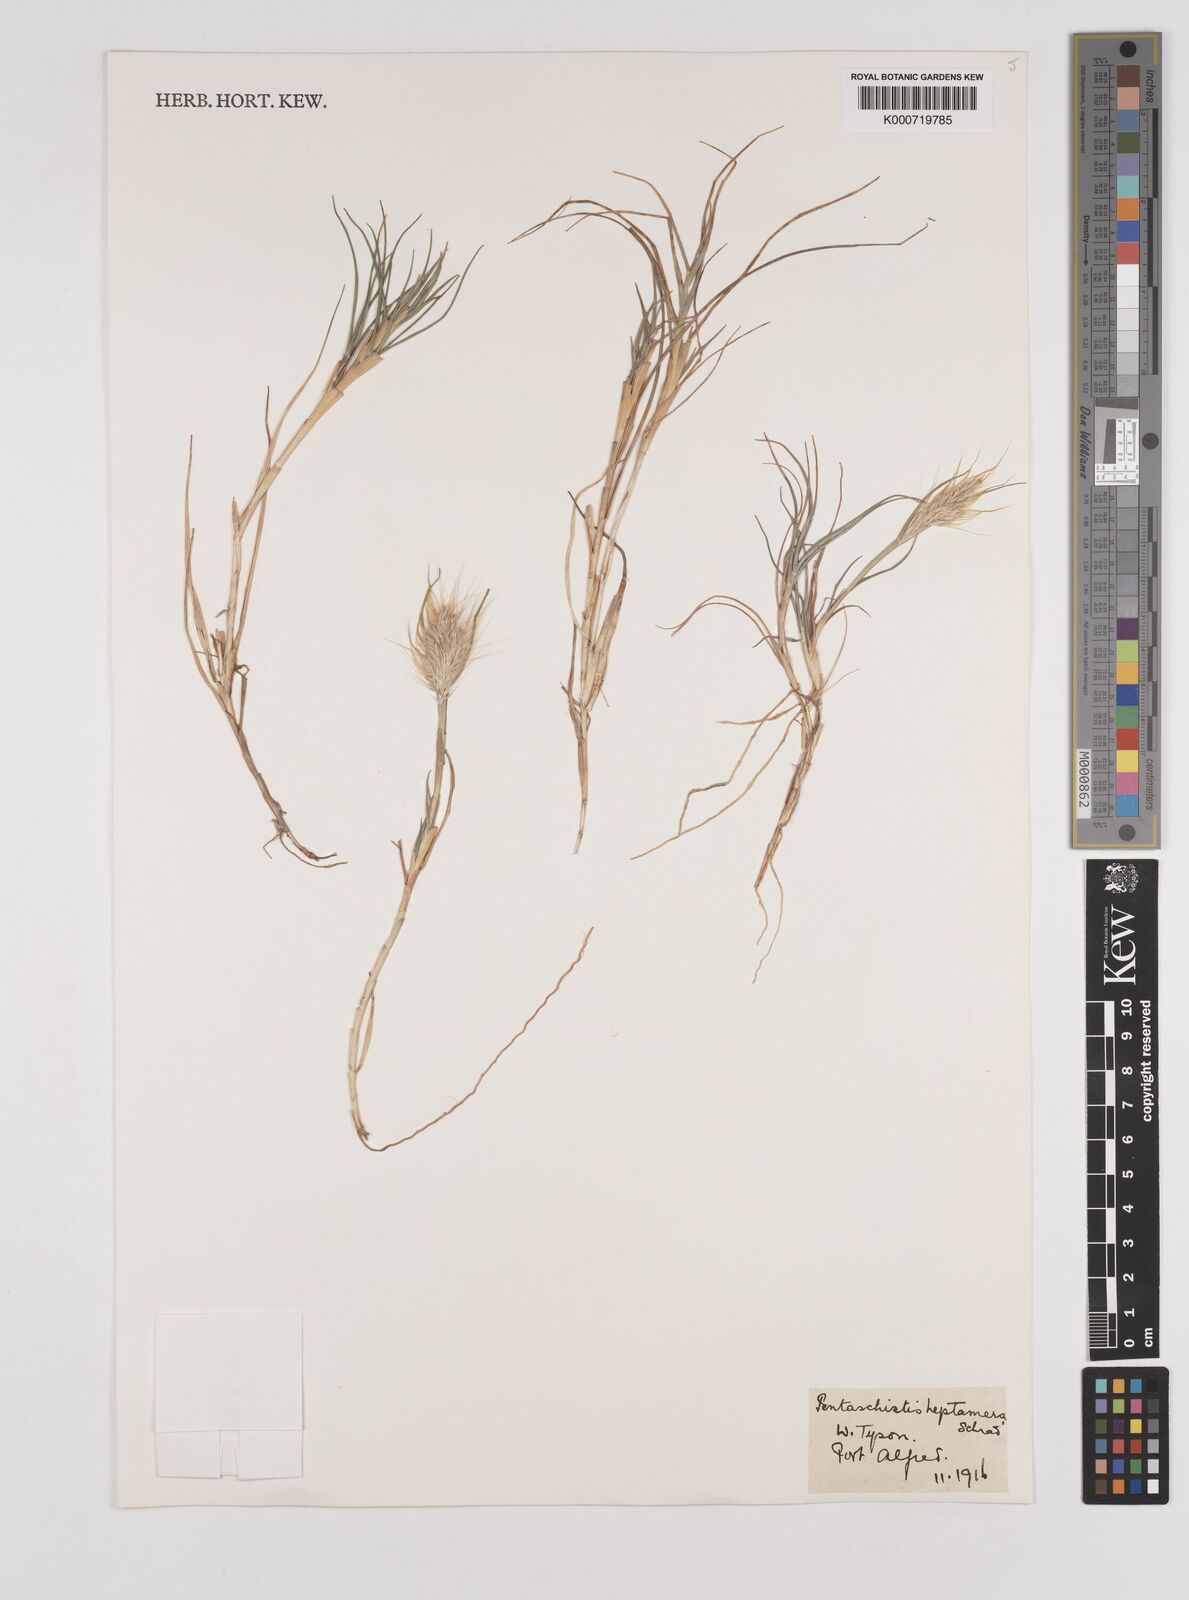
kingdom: Plantae
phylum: Tracheophyta
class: Liliopsida
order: Poales
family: Poaceae
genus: Pentameris
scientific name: Pentameris heptamera
